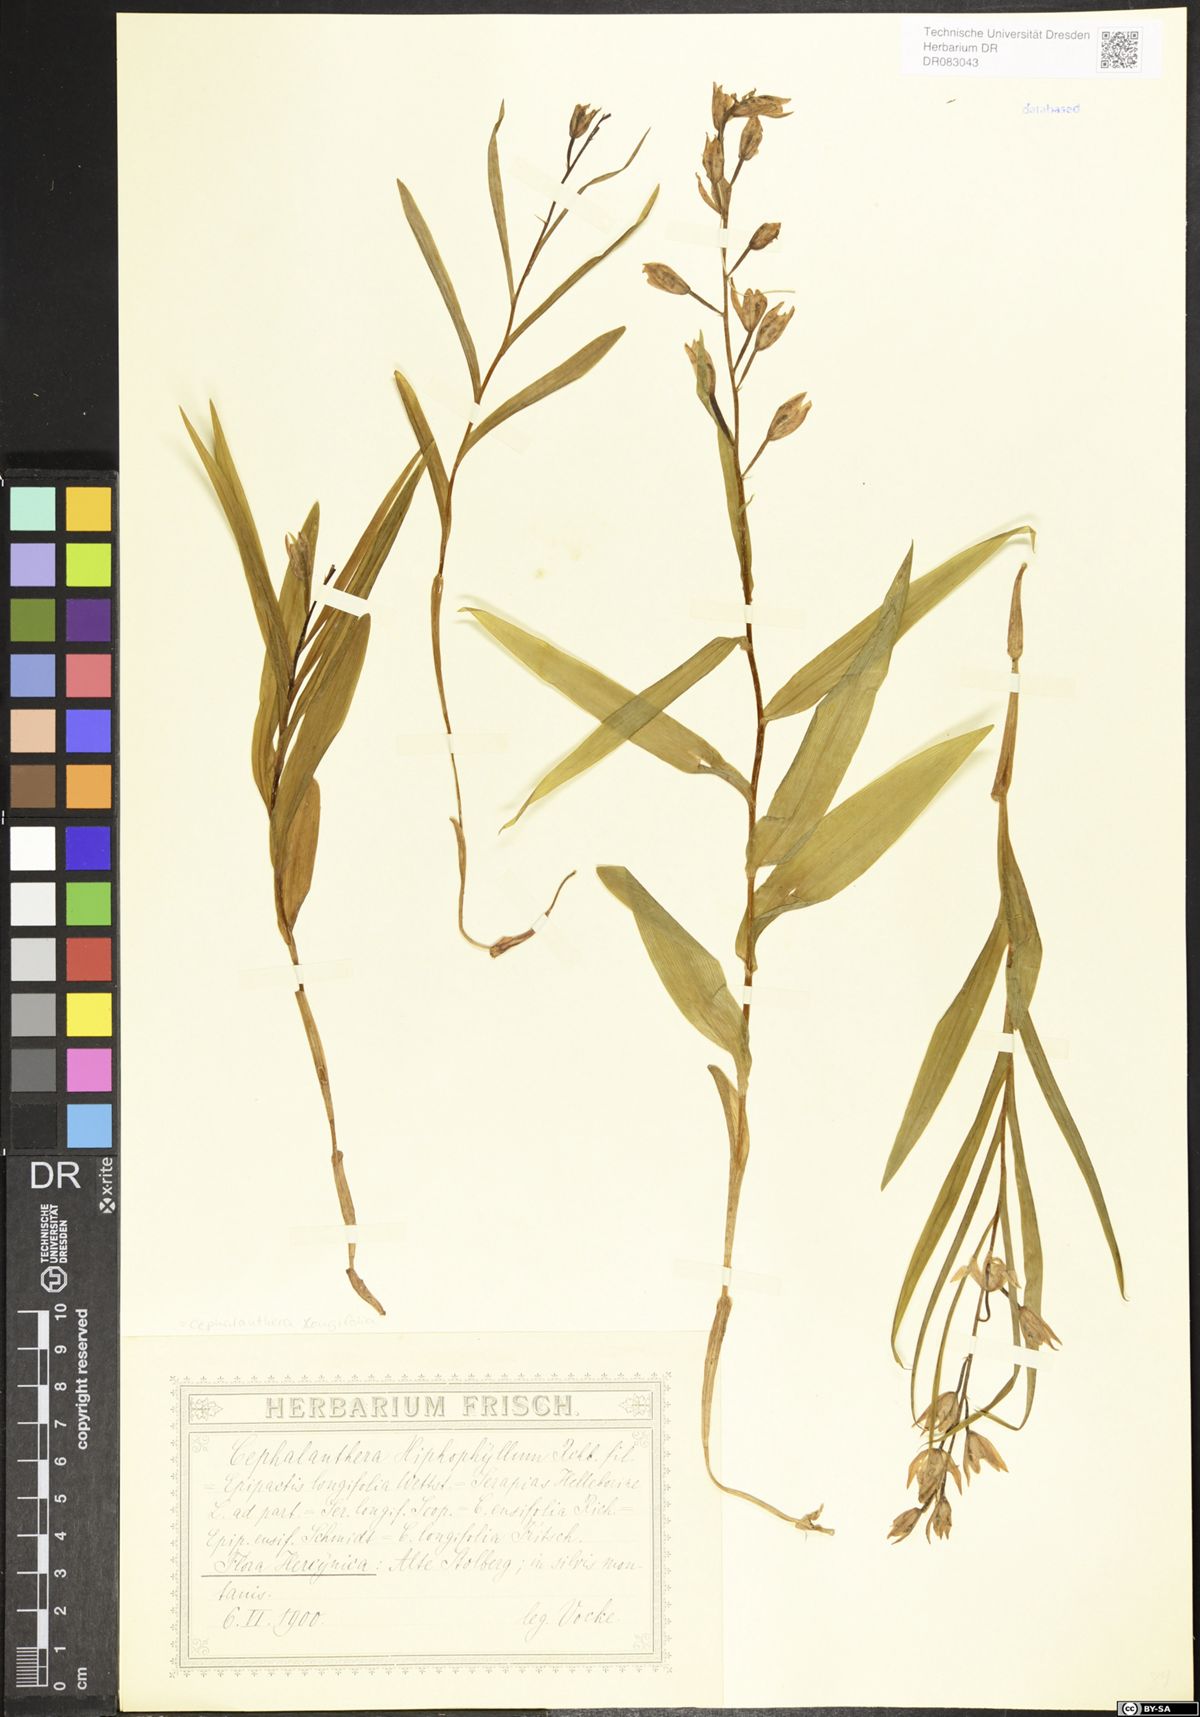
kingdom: Plantae
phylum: Tracheophyta
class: Liliopsida
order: Asparagales
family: Orchidaceae
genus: Cephalanthera
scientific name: Cephalanthera longifolia
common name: Narrow-leaved helleborine
